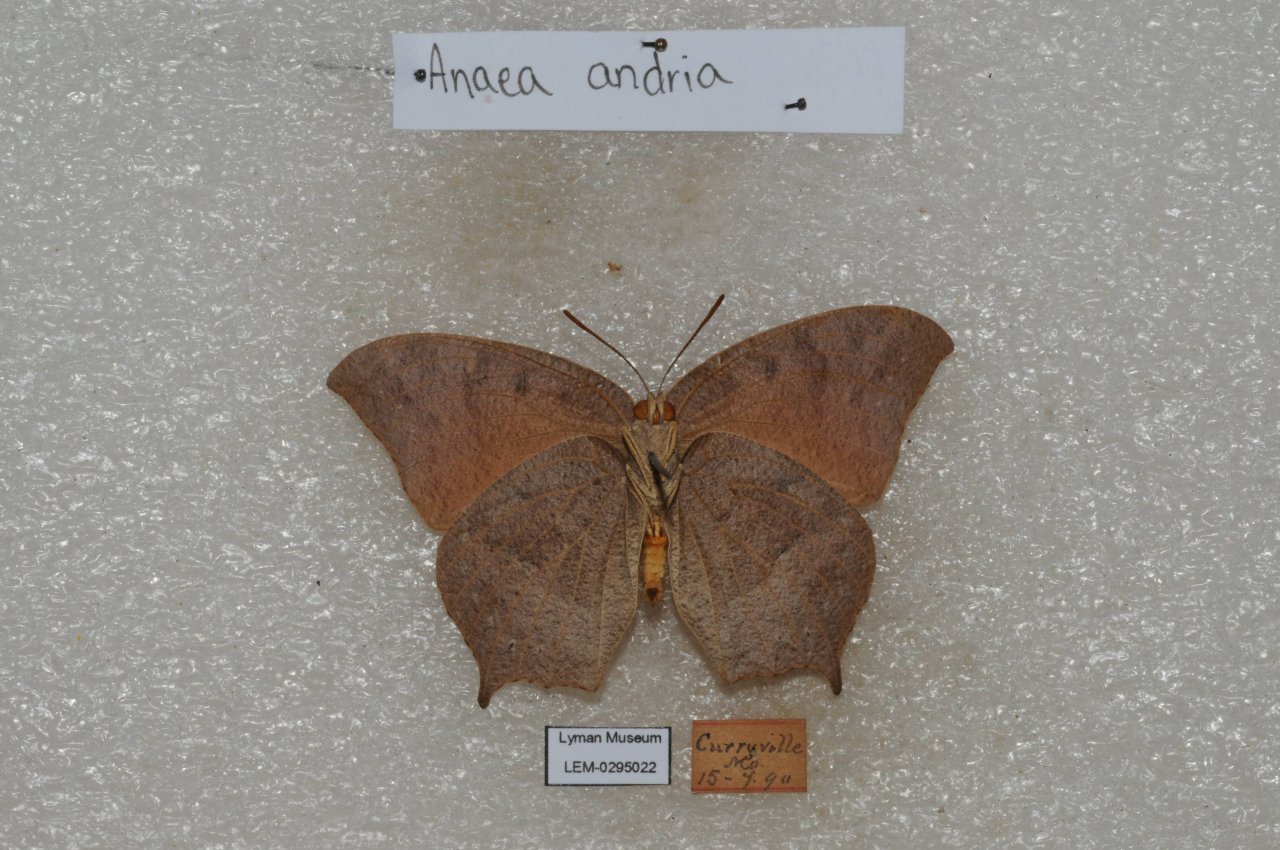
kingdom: Animalia
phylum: Arthropoda
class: Insecta
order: Lepidoptera
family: Nymphalidae
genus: Anaea
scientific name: Anaea andria
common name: Goatweed Leafwing
